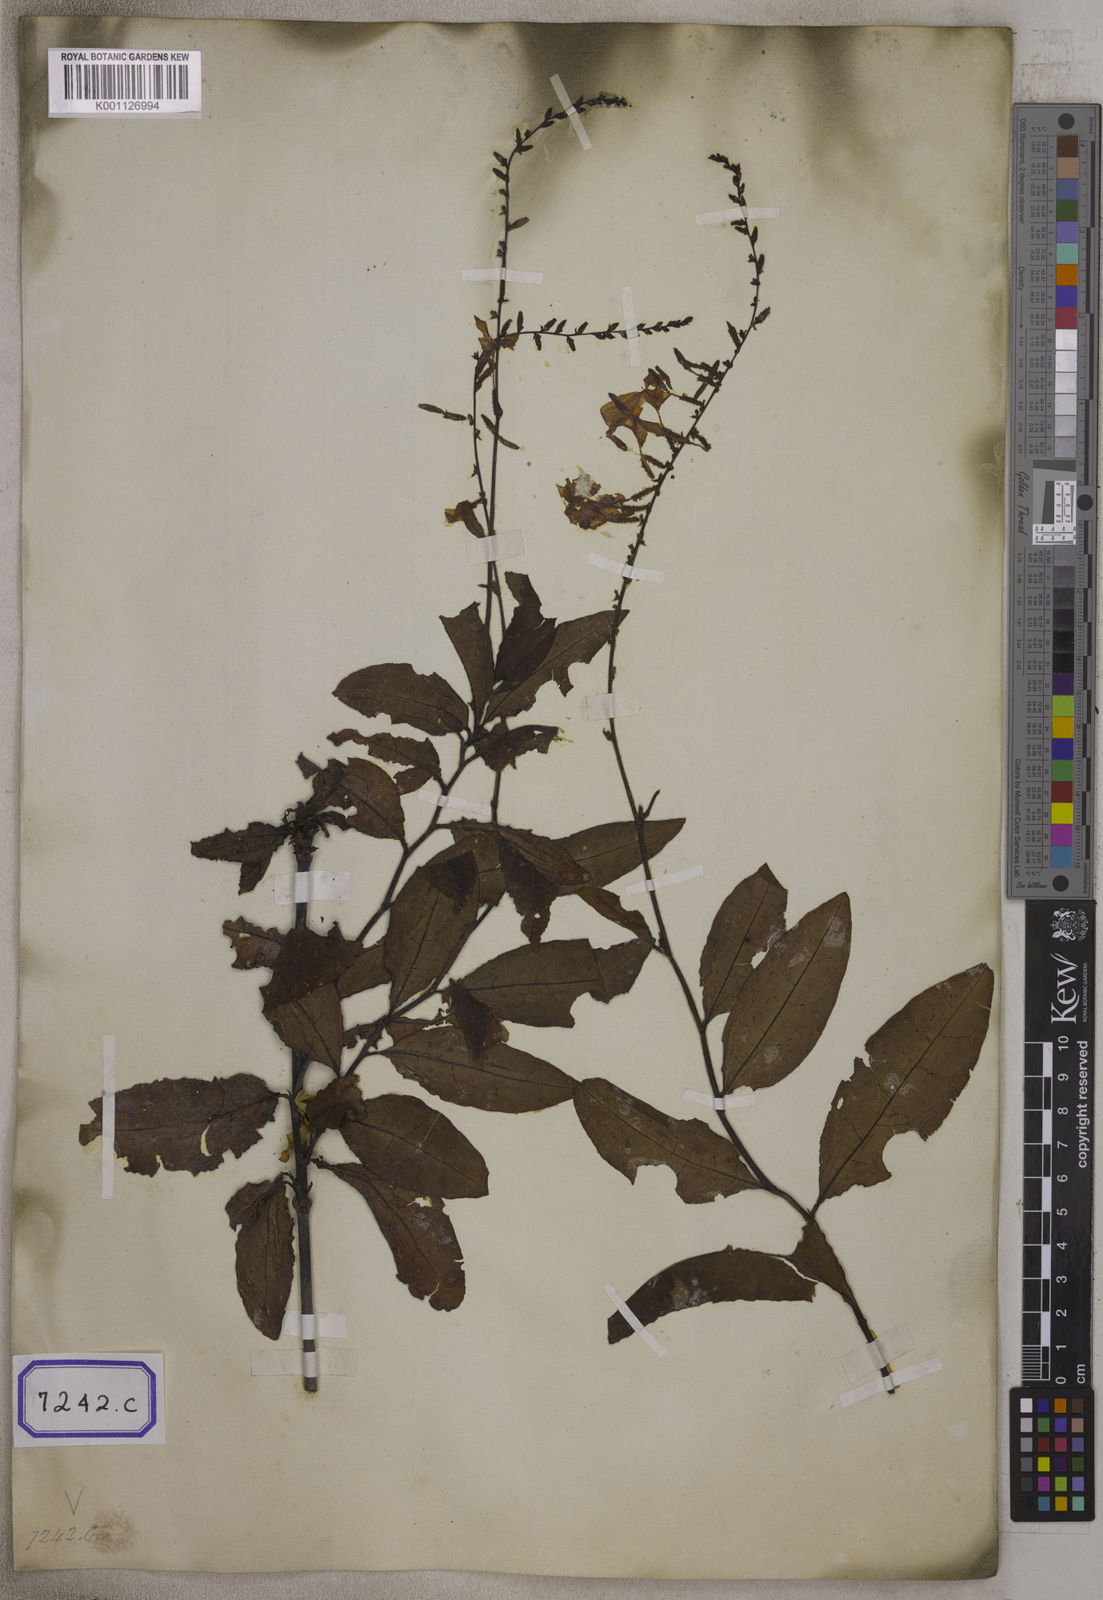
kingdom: Plantae
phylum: Tracheophyta
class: Magnoliopsida
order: Caryophyllales
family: Plumbaginaceae
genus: Plumbago
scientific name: Plumbago indica
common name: Indian leadwort
